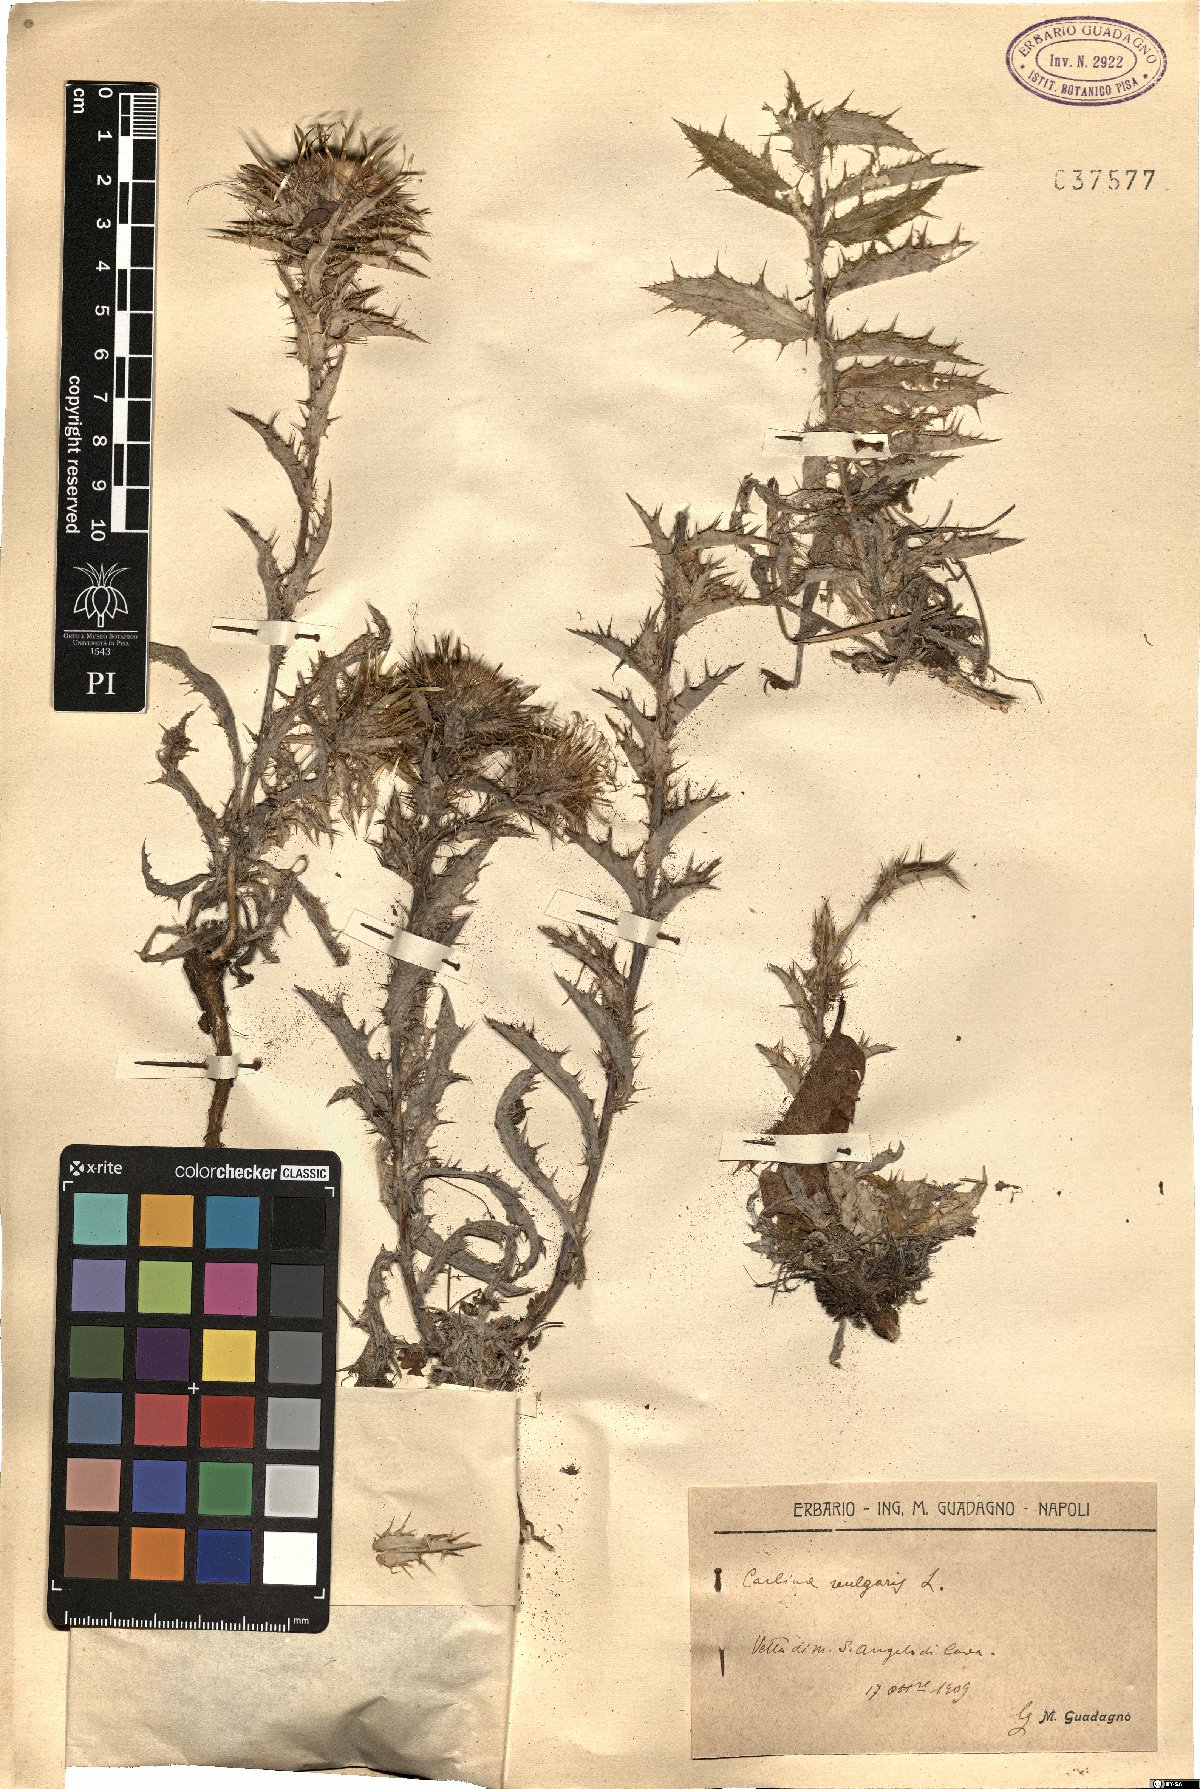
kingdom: Plantae
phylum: Tracheophyta
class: Magnoliopsida
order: Asterales
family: Asteraceae
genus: Carlina
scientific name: Carlina vulgaris
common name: Carline thistle
